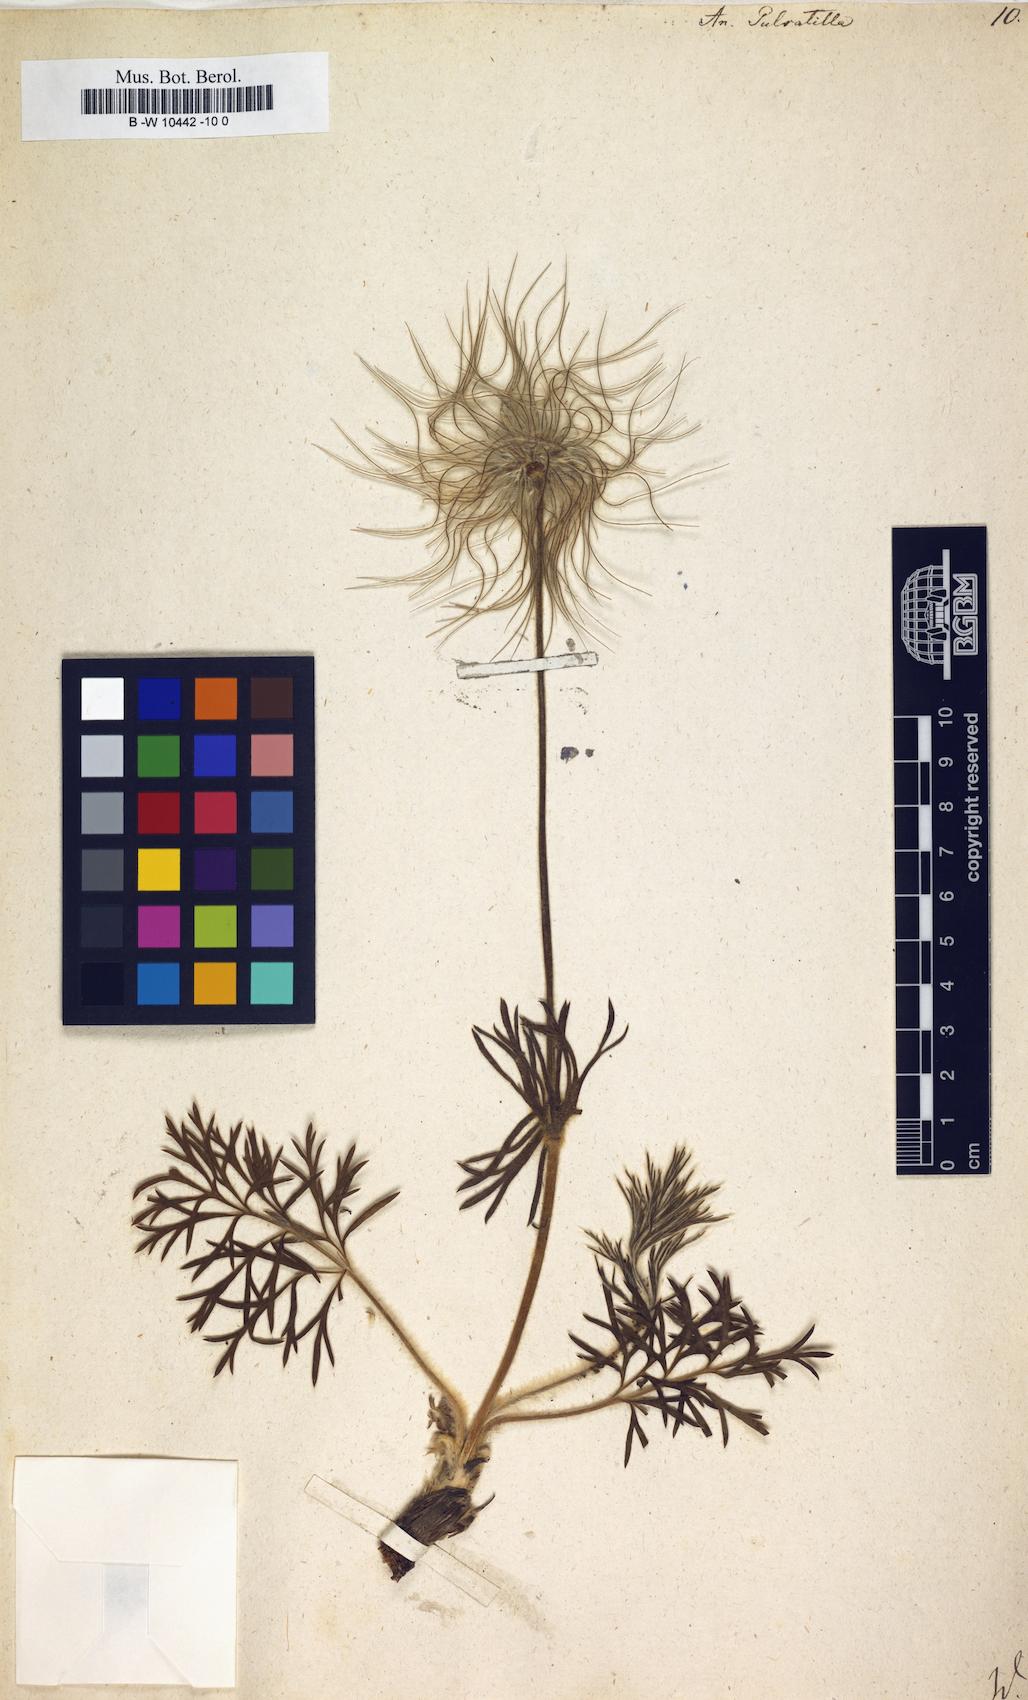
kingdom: Plantae
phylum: Tracheophyta
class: Magnoliopsida
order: Ranunculales
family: Ranunculaceae
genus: Pulsatilla
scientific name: Pulsatilla vulgaris
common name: Pasqueflower
